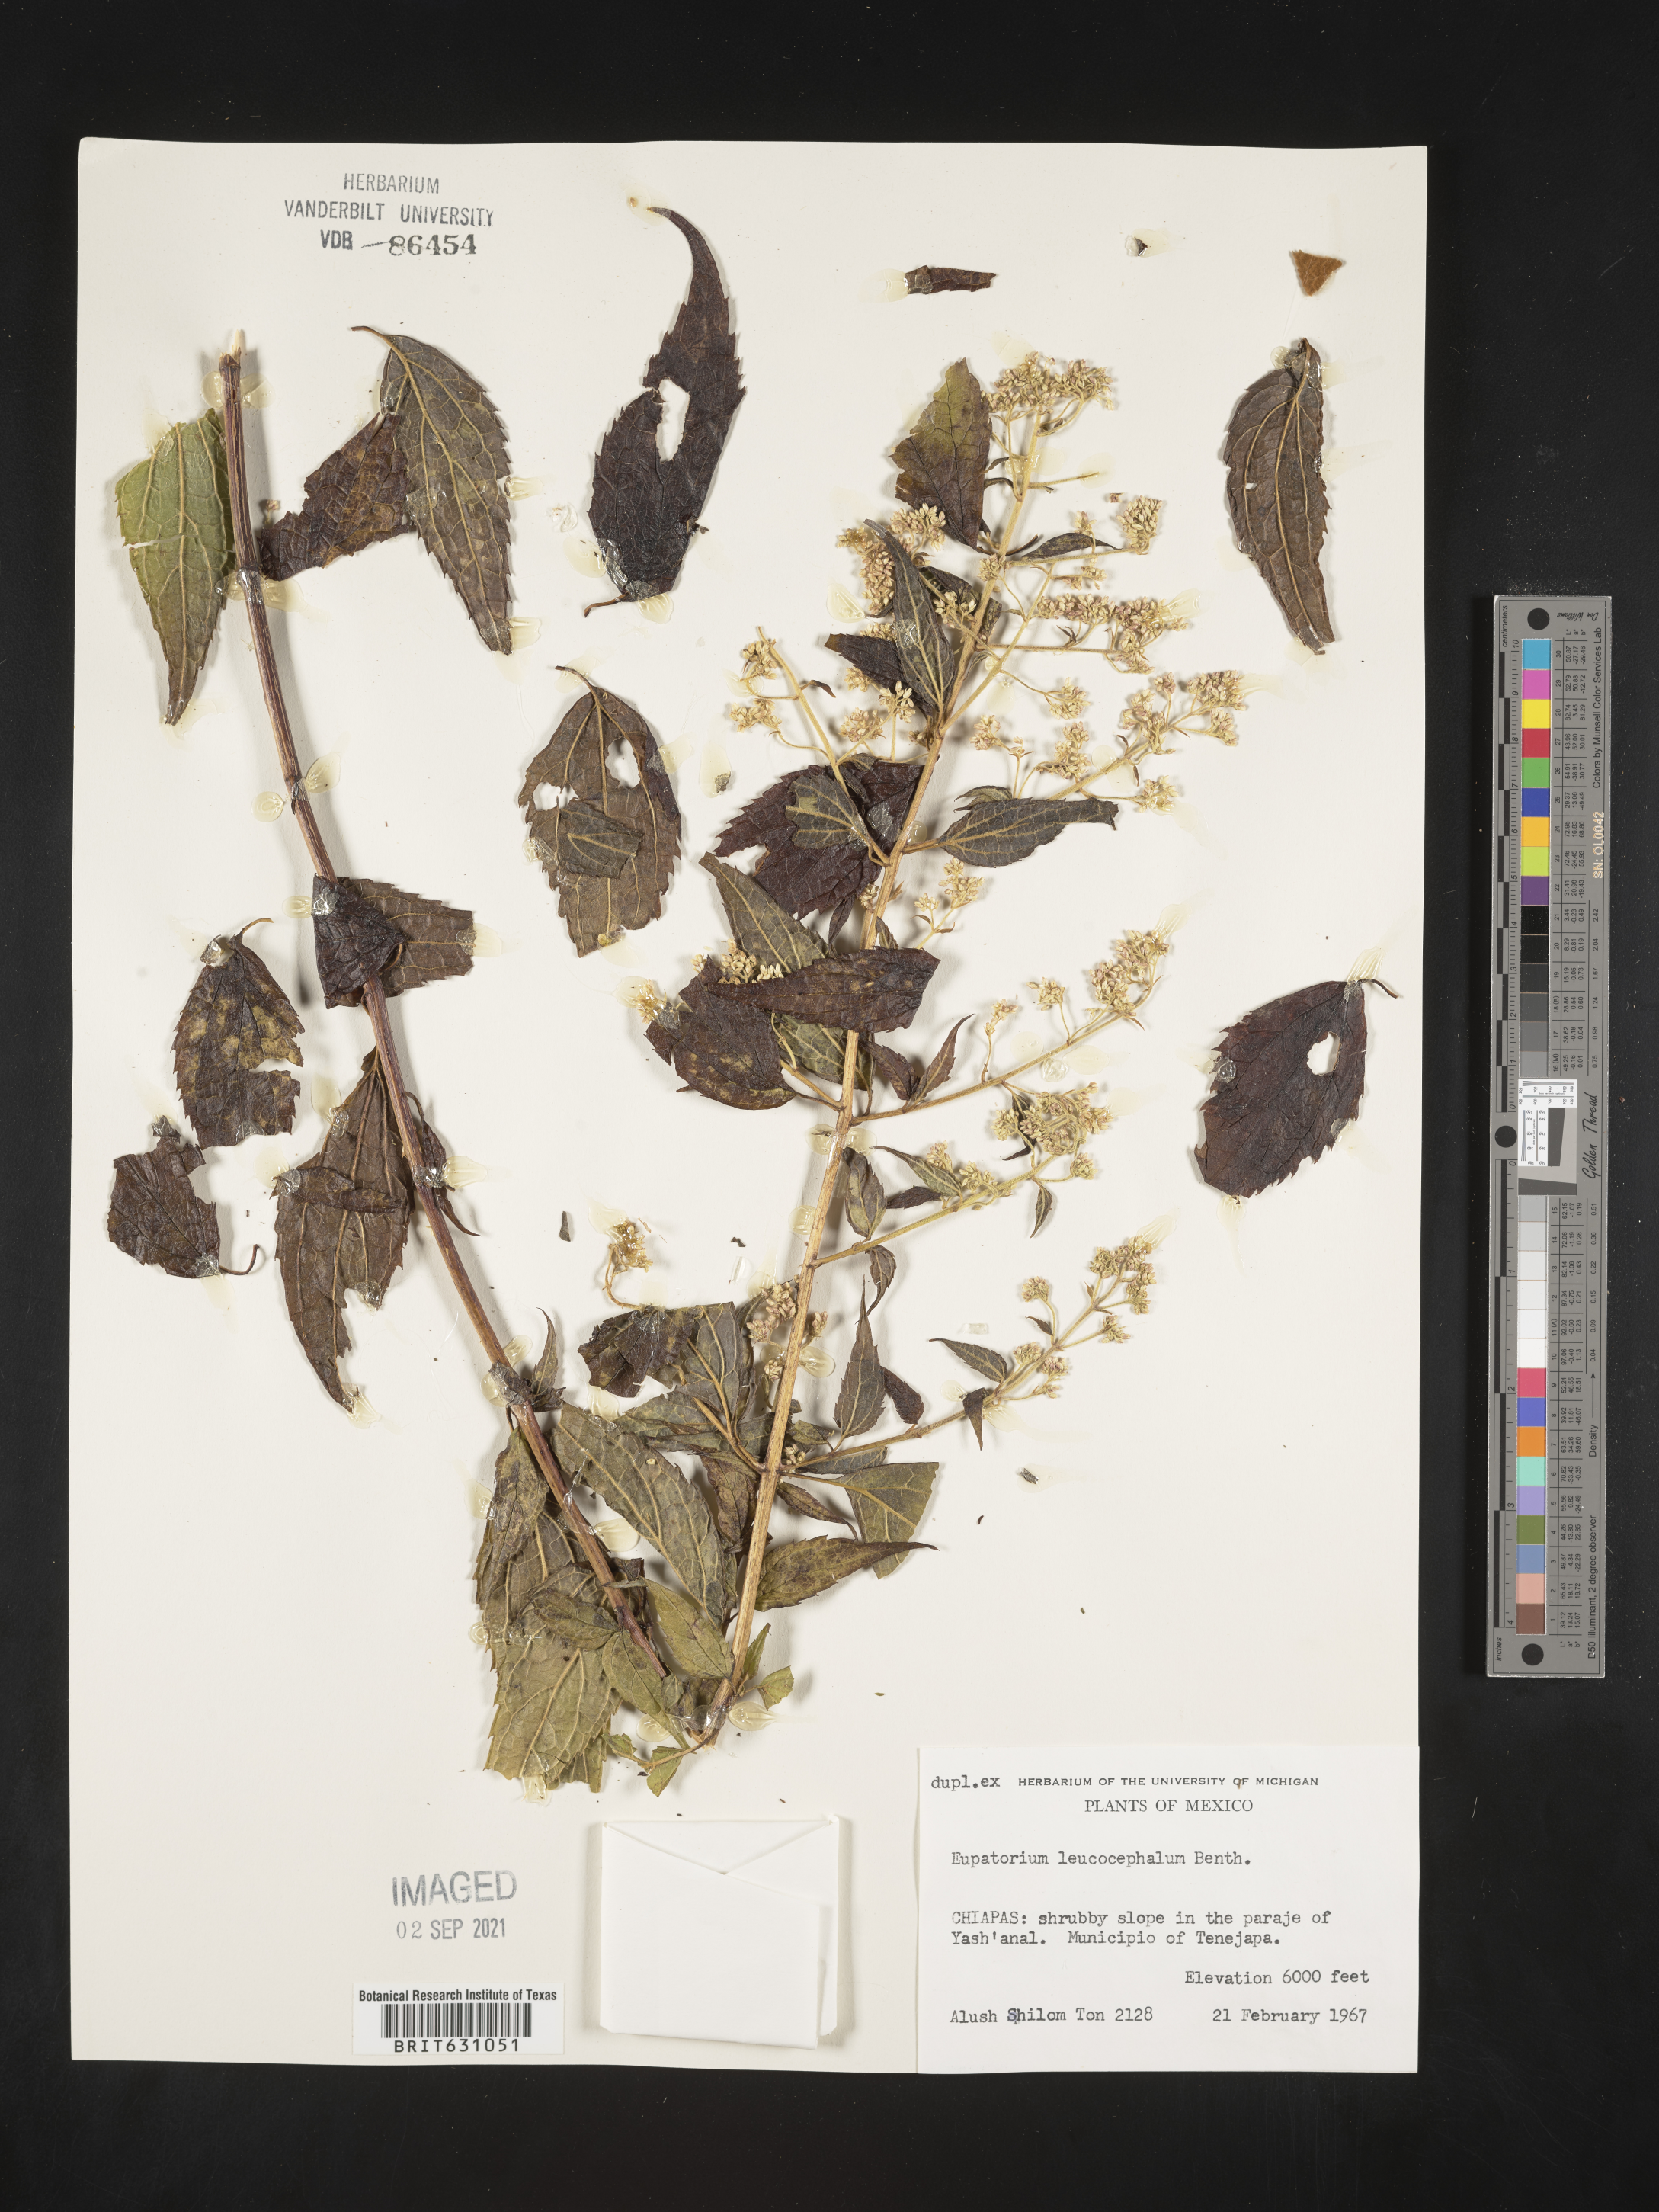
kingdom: Plantae
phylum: Tracheophyta
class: Magnoliopsida
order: Asterales
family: Asteraceae
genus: Eupatorium
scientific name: Eupatorium
